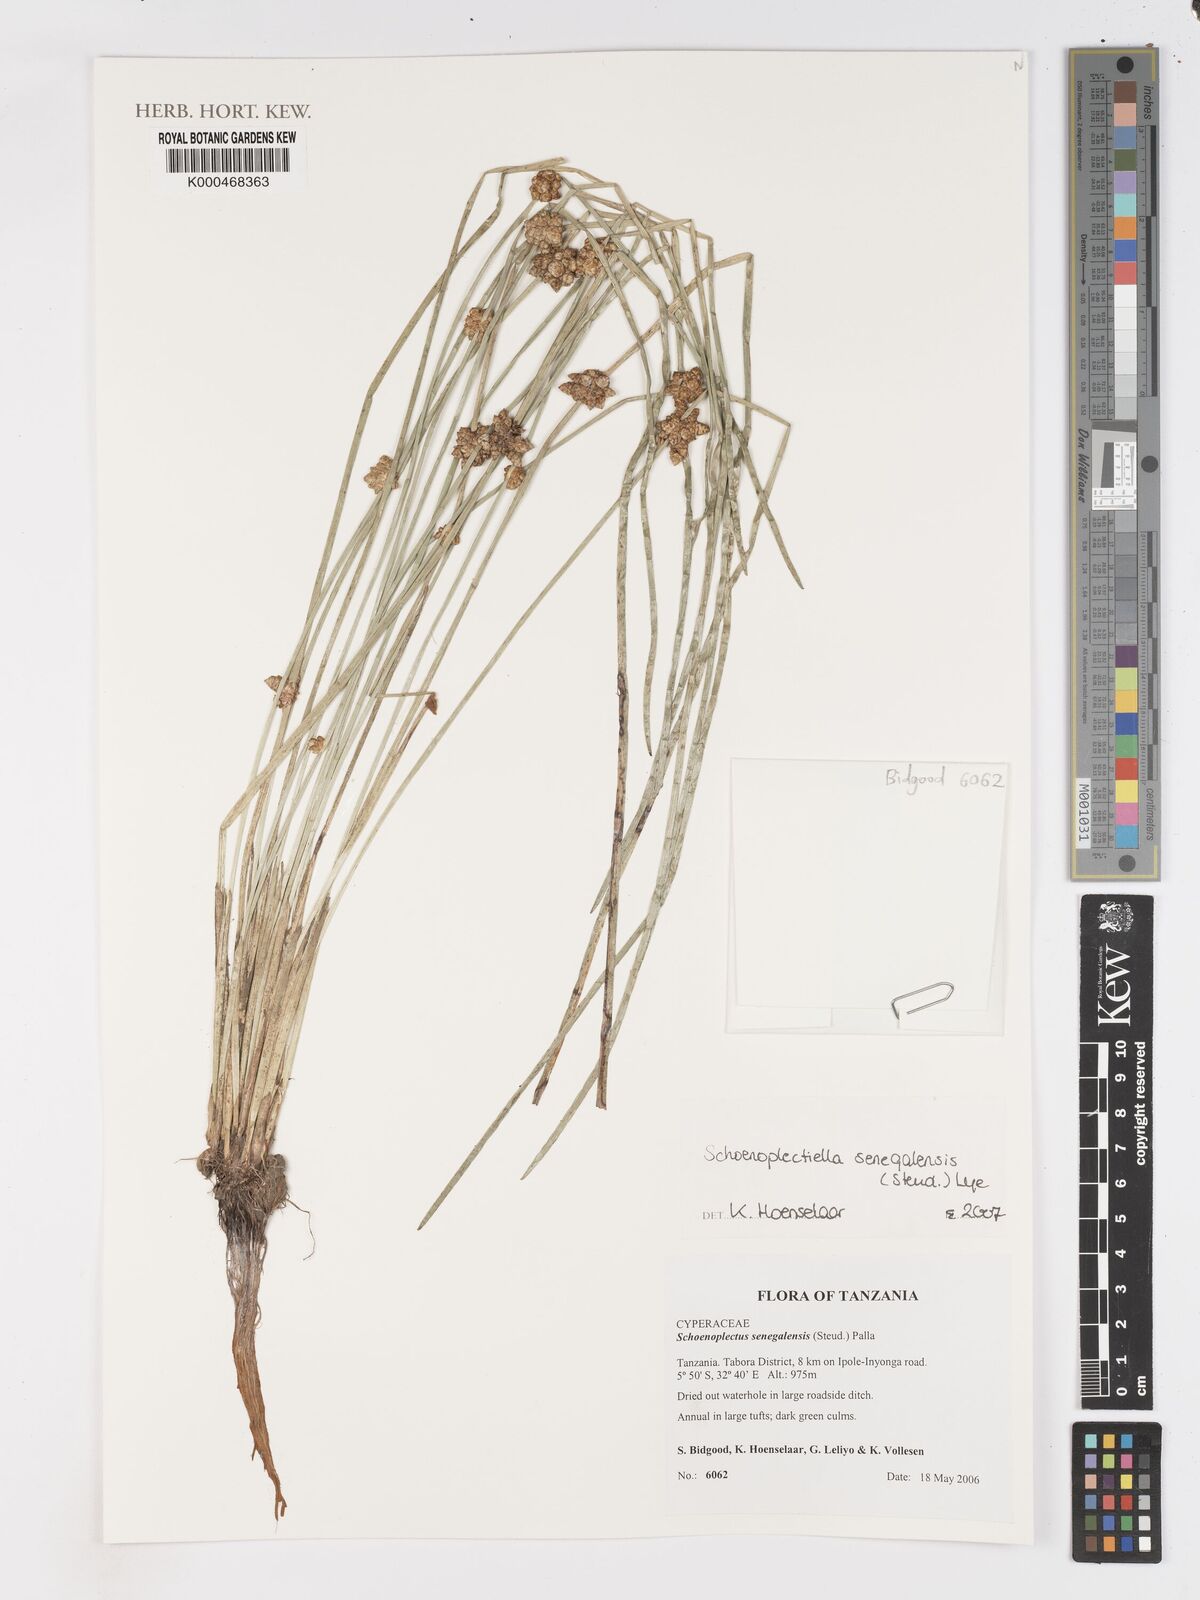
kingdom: Plantae
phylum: Tracheophyta
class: Liliopsida
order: Poales
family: Cyperaceae
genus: Schoenoplectiella
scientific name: Schoenoplectiella senegalensis
